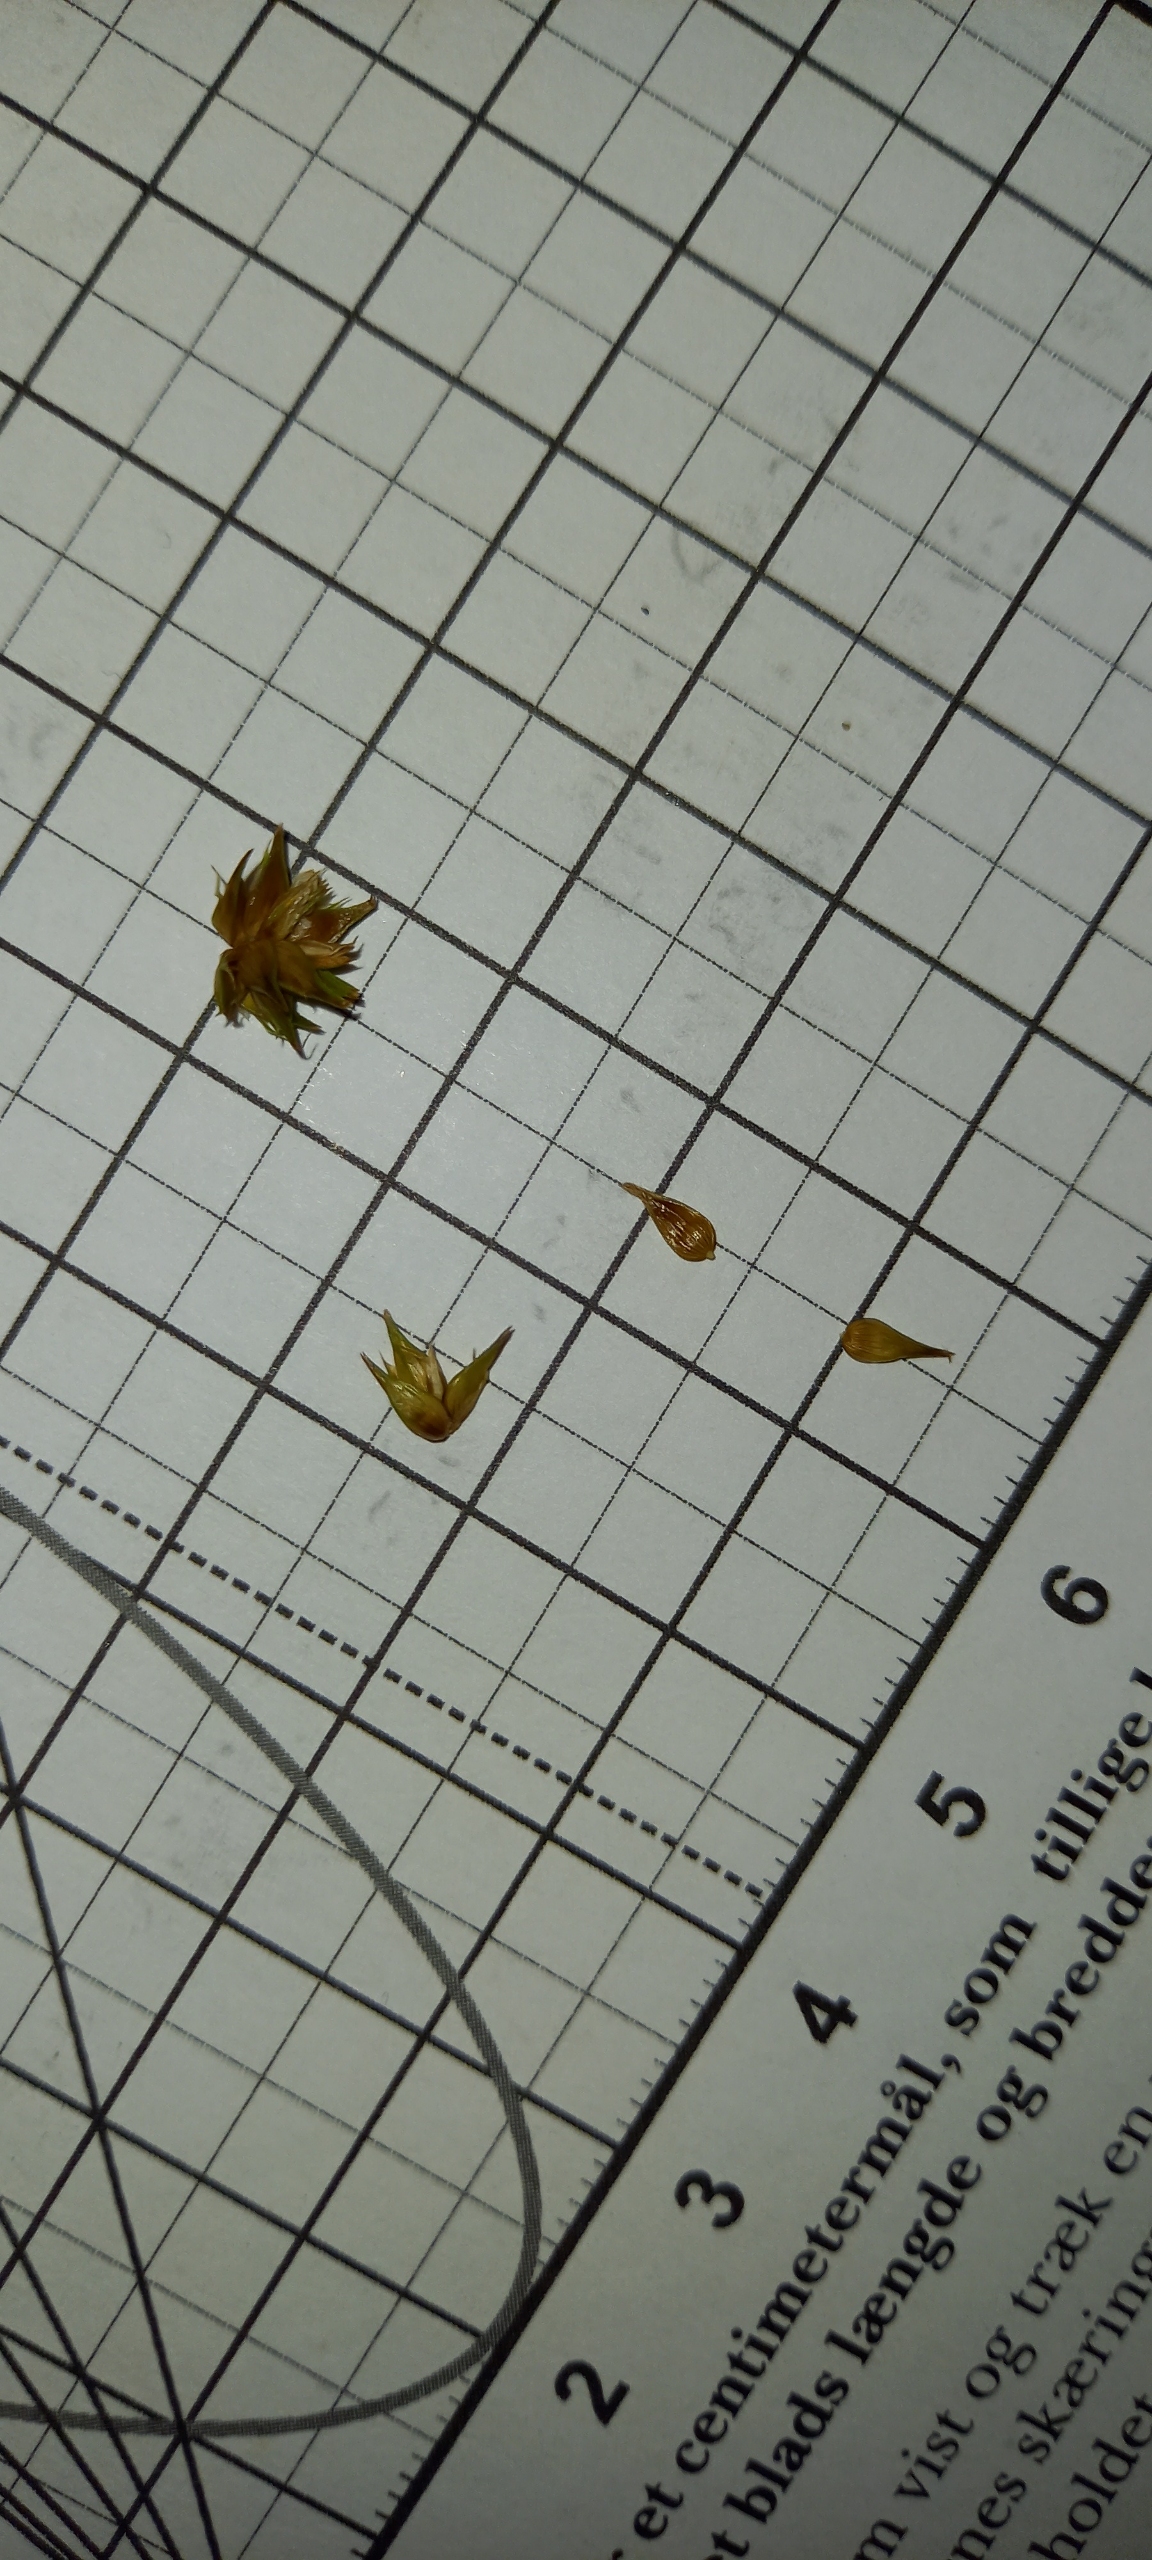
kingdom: Plantae
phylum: Tracheophyta
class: Liliopsida
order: Poales
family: Cyperaceae
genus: Carex
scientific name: Carex otrubae
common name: Sylt-star
